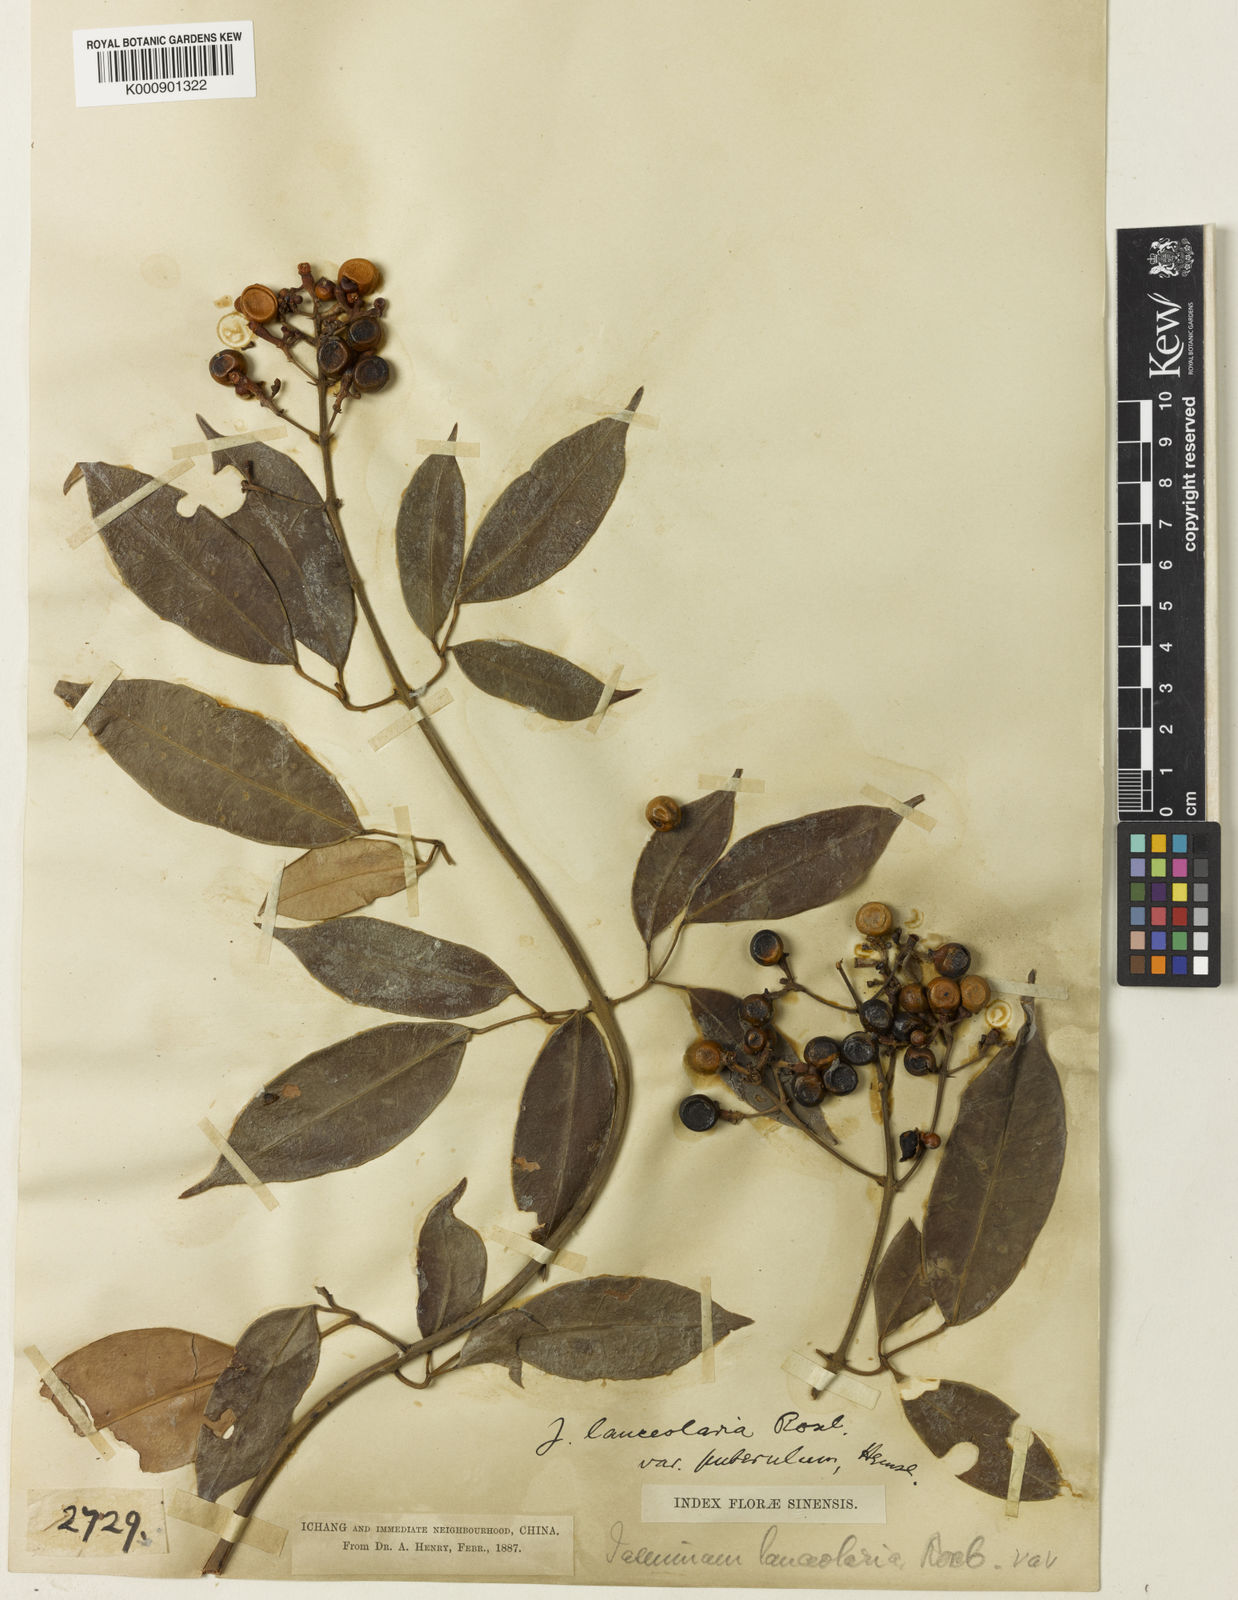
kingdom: Plantae
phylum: Tracheophyta
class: Magnoliopsida
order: Lamiales
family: Oleaceae
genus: Jasminum
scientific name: Jasminum lanceolaria
